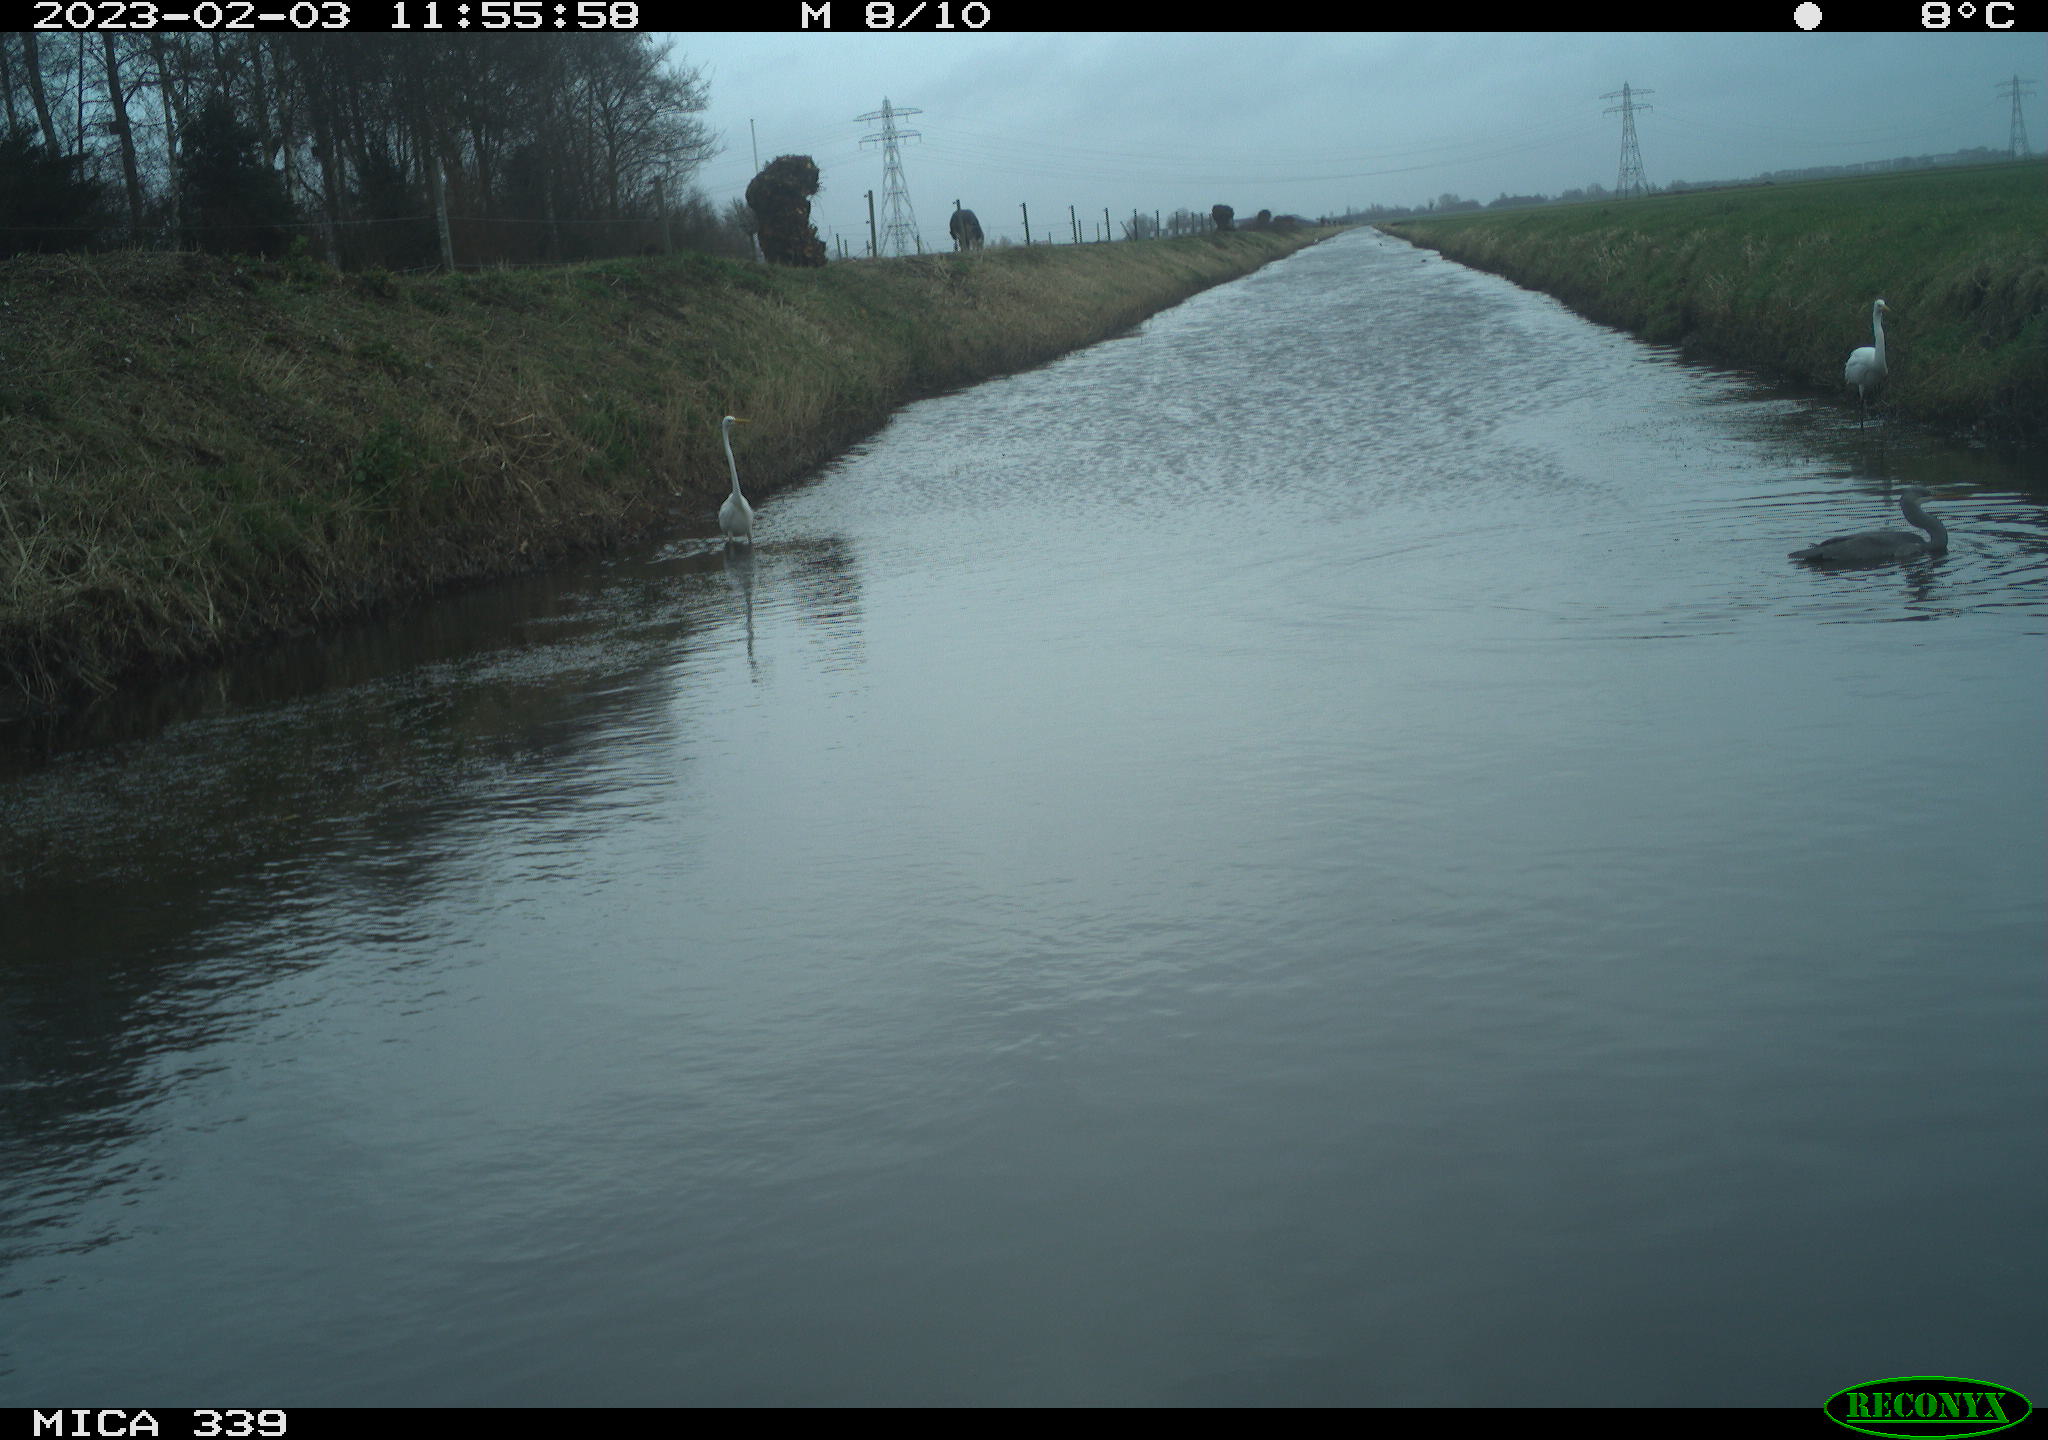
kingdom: Animalia
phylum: Chordata
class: Aves
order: Pelecaniformes
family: Ardeidae
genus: Ardea
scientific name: Ardea alba
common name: Great egret
